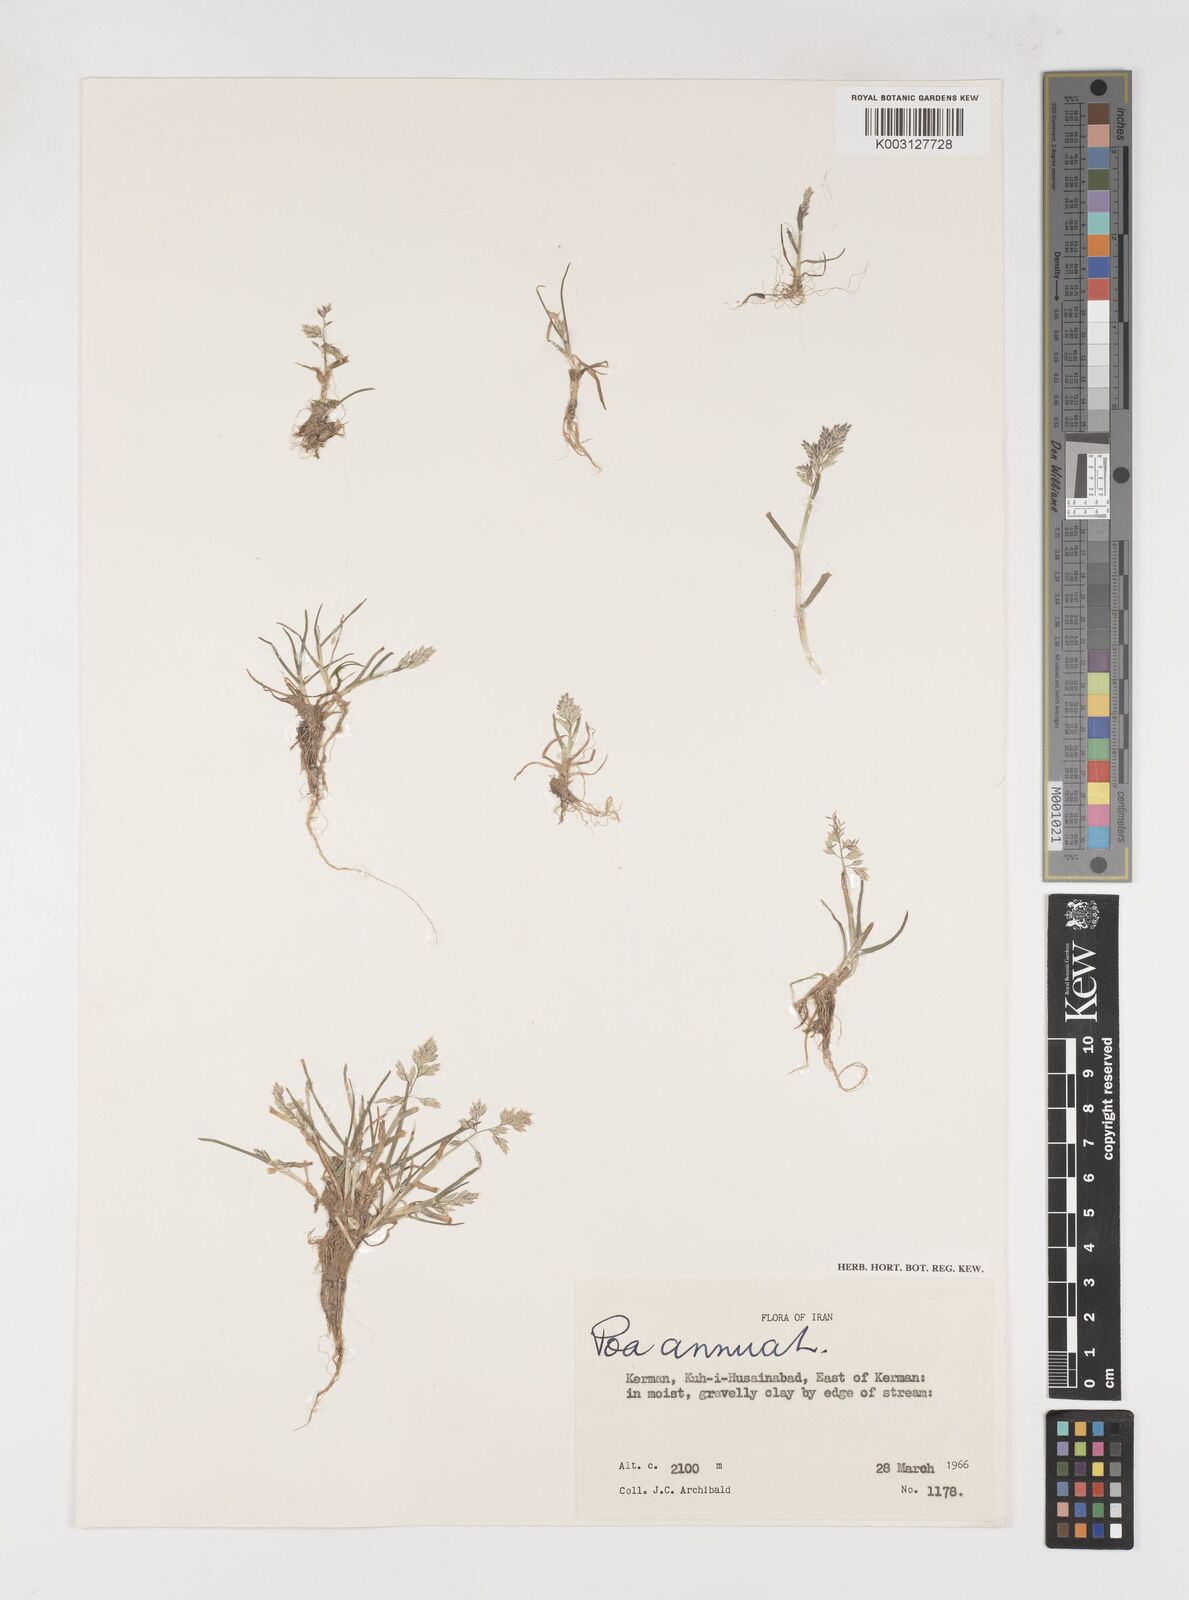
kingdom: Plantae
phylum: Tracheophyta
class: Liliopsida
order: Poales
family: Poaceae
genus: Poa
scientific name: Poa annua
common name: Annual bluegrass
